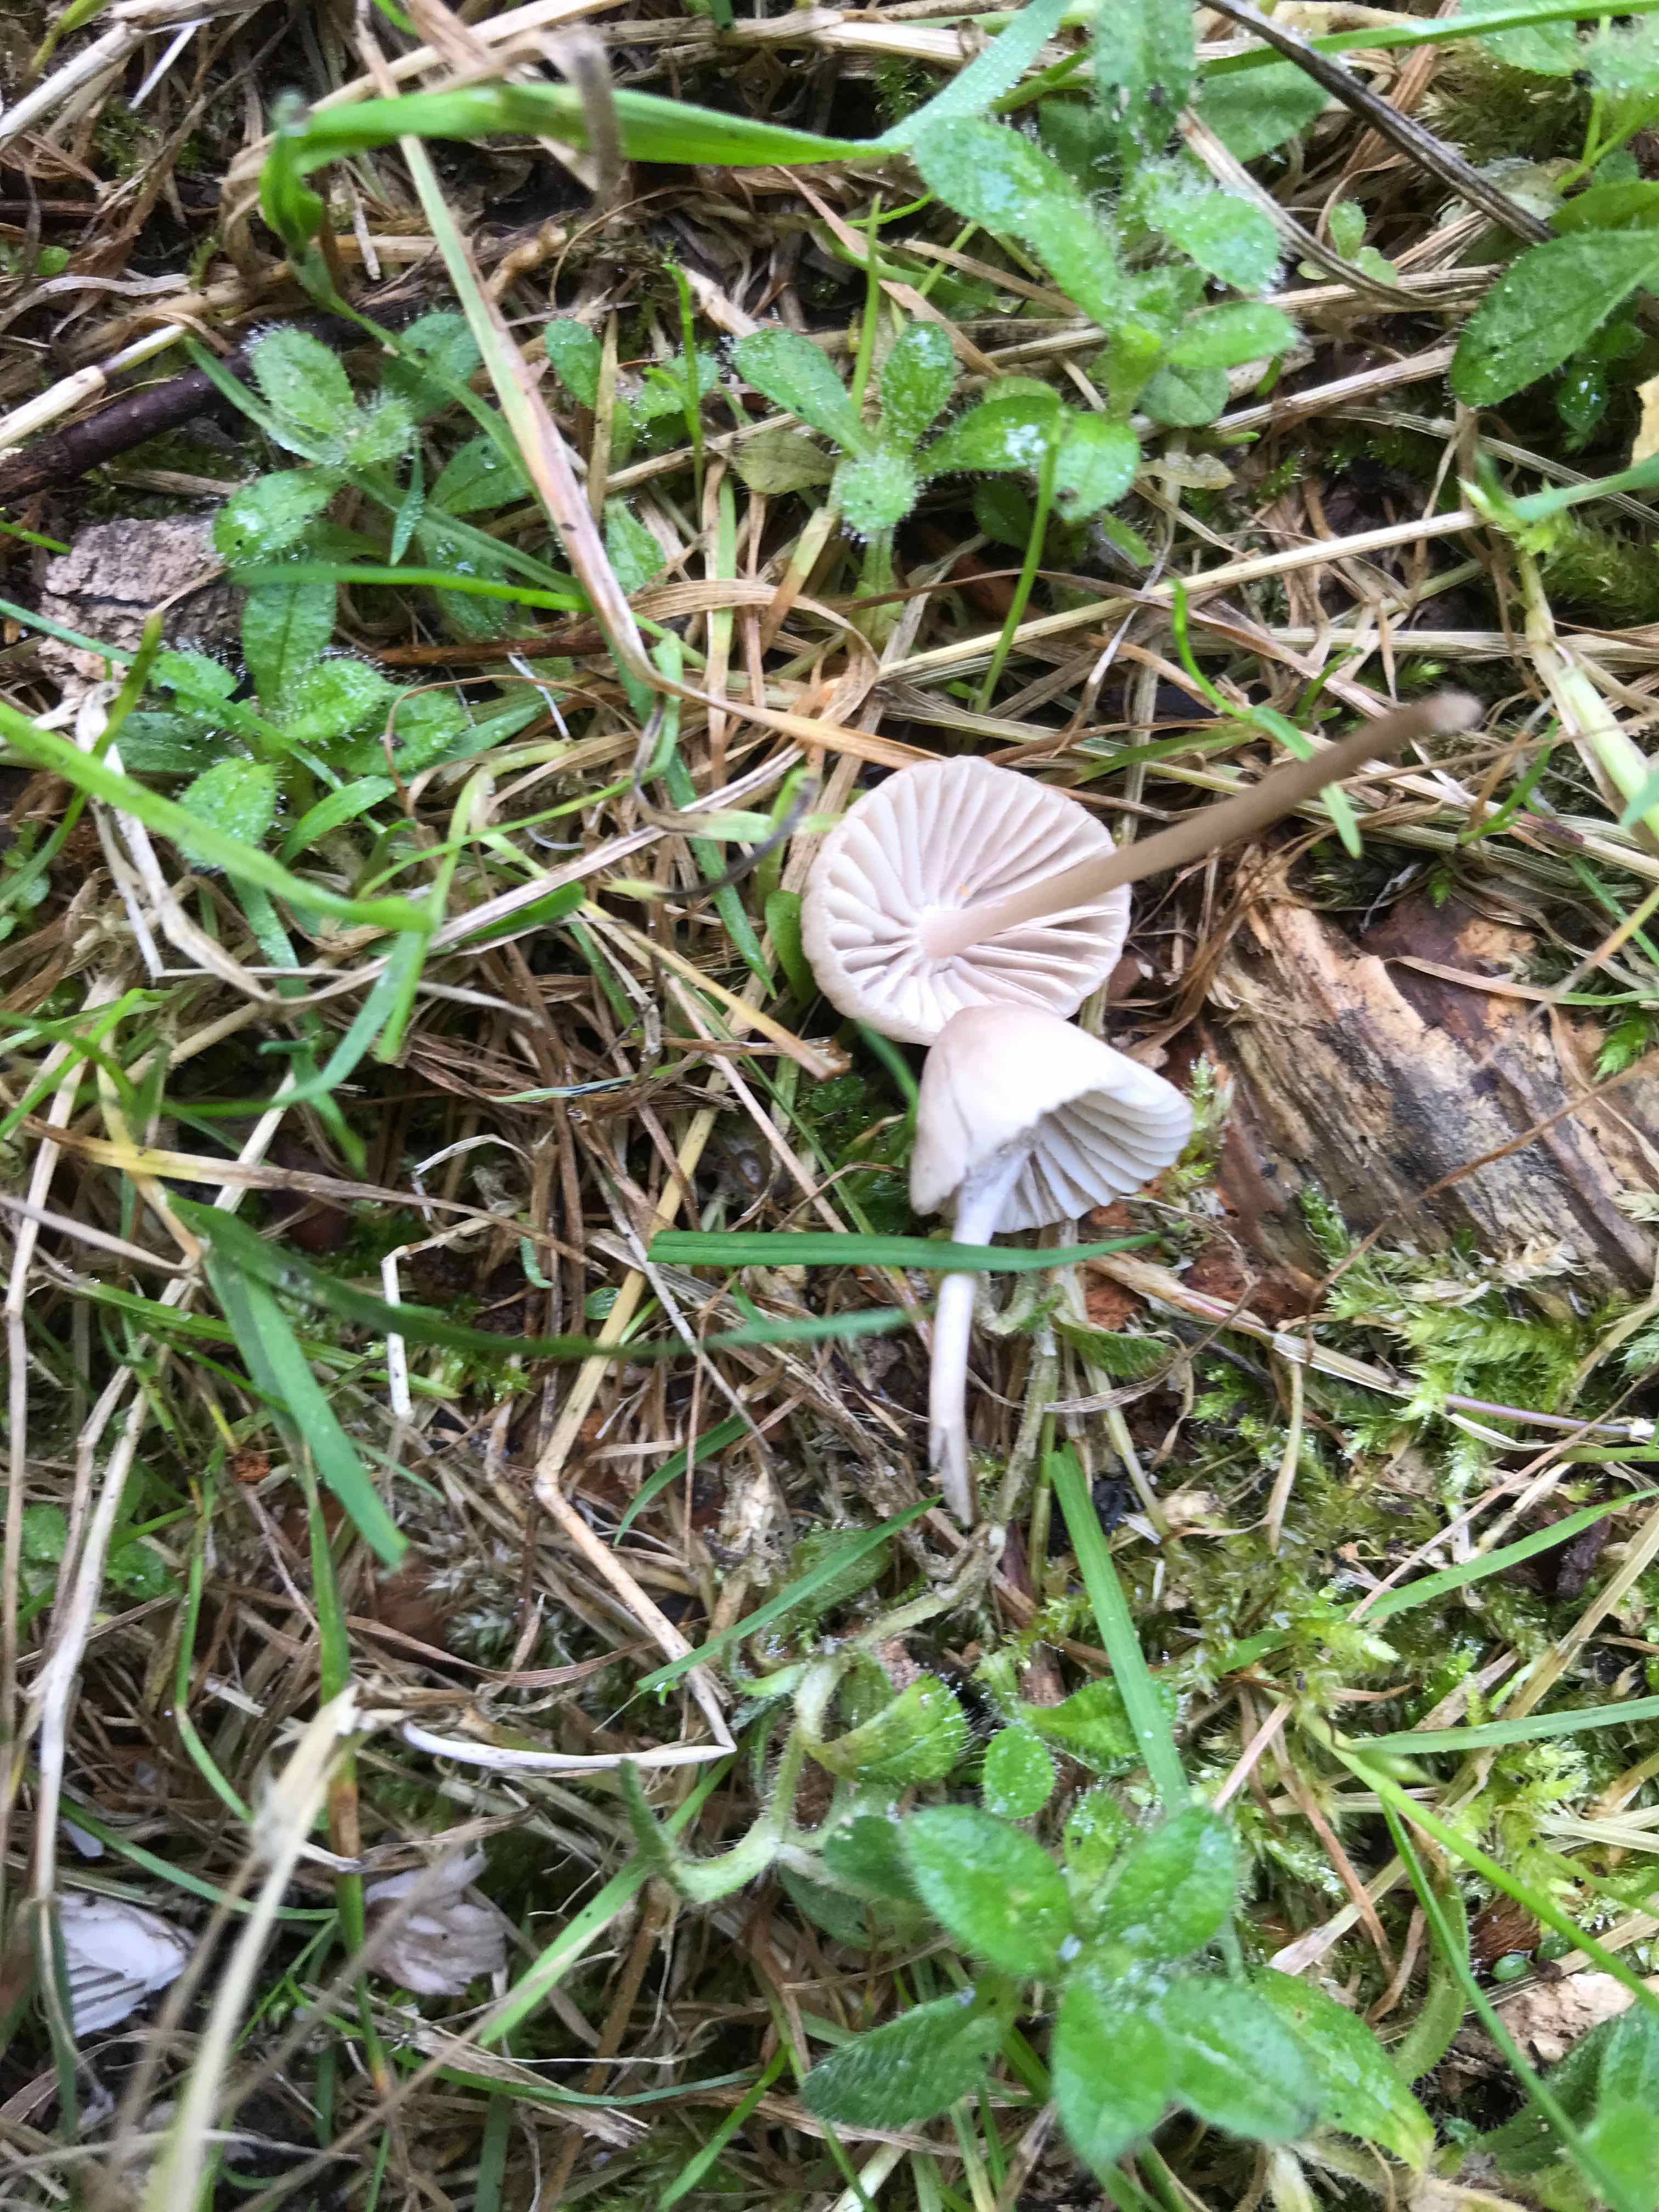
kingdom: Fungi
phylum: Basidiomycota
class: Agaricomycetes
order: Agaricales
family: Mycenaceae
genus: Mycena
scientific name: Mycena
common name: huesvamp
